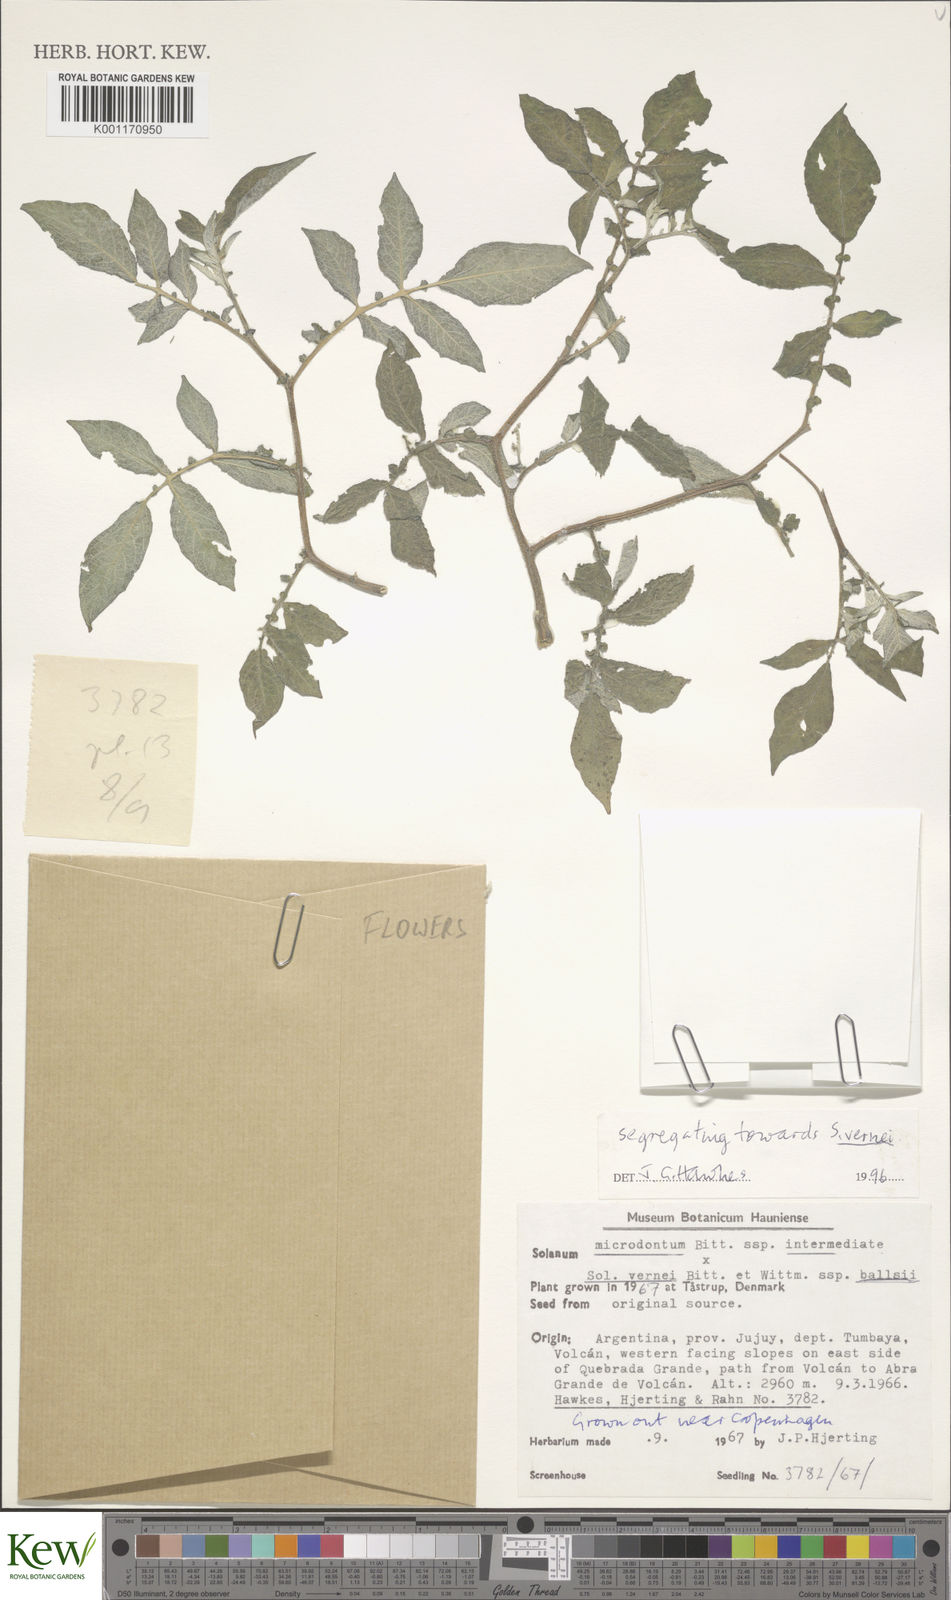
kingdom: Plantae
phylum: Tracheophyta
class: Magnoliopsida
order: Solanales
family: Solanaceae
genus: Solanum
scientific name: Solanum vernei
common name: Purple potato
